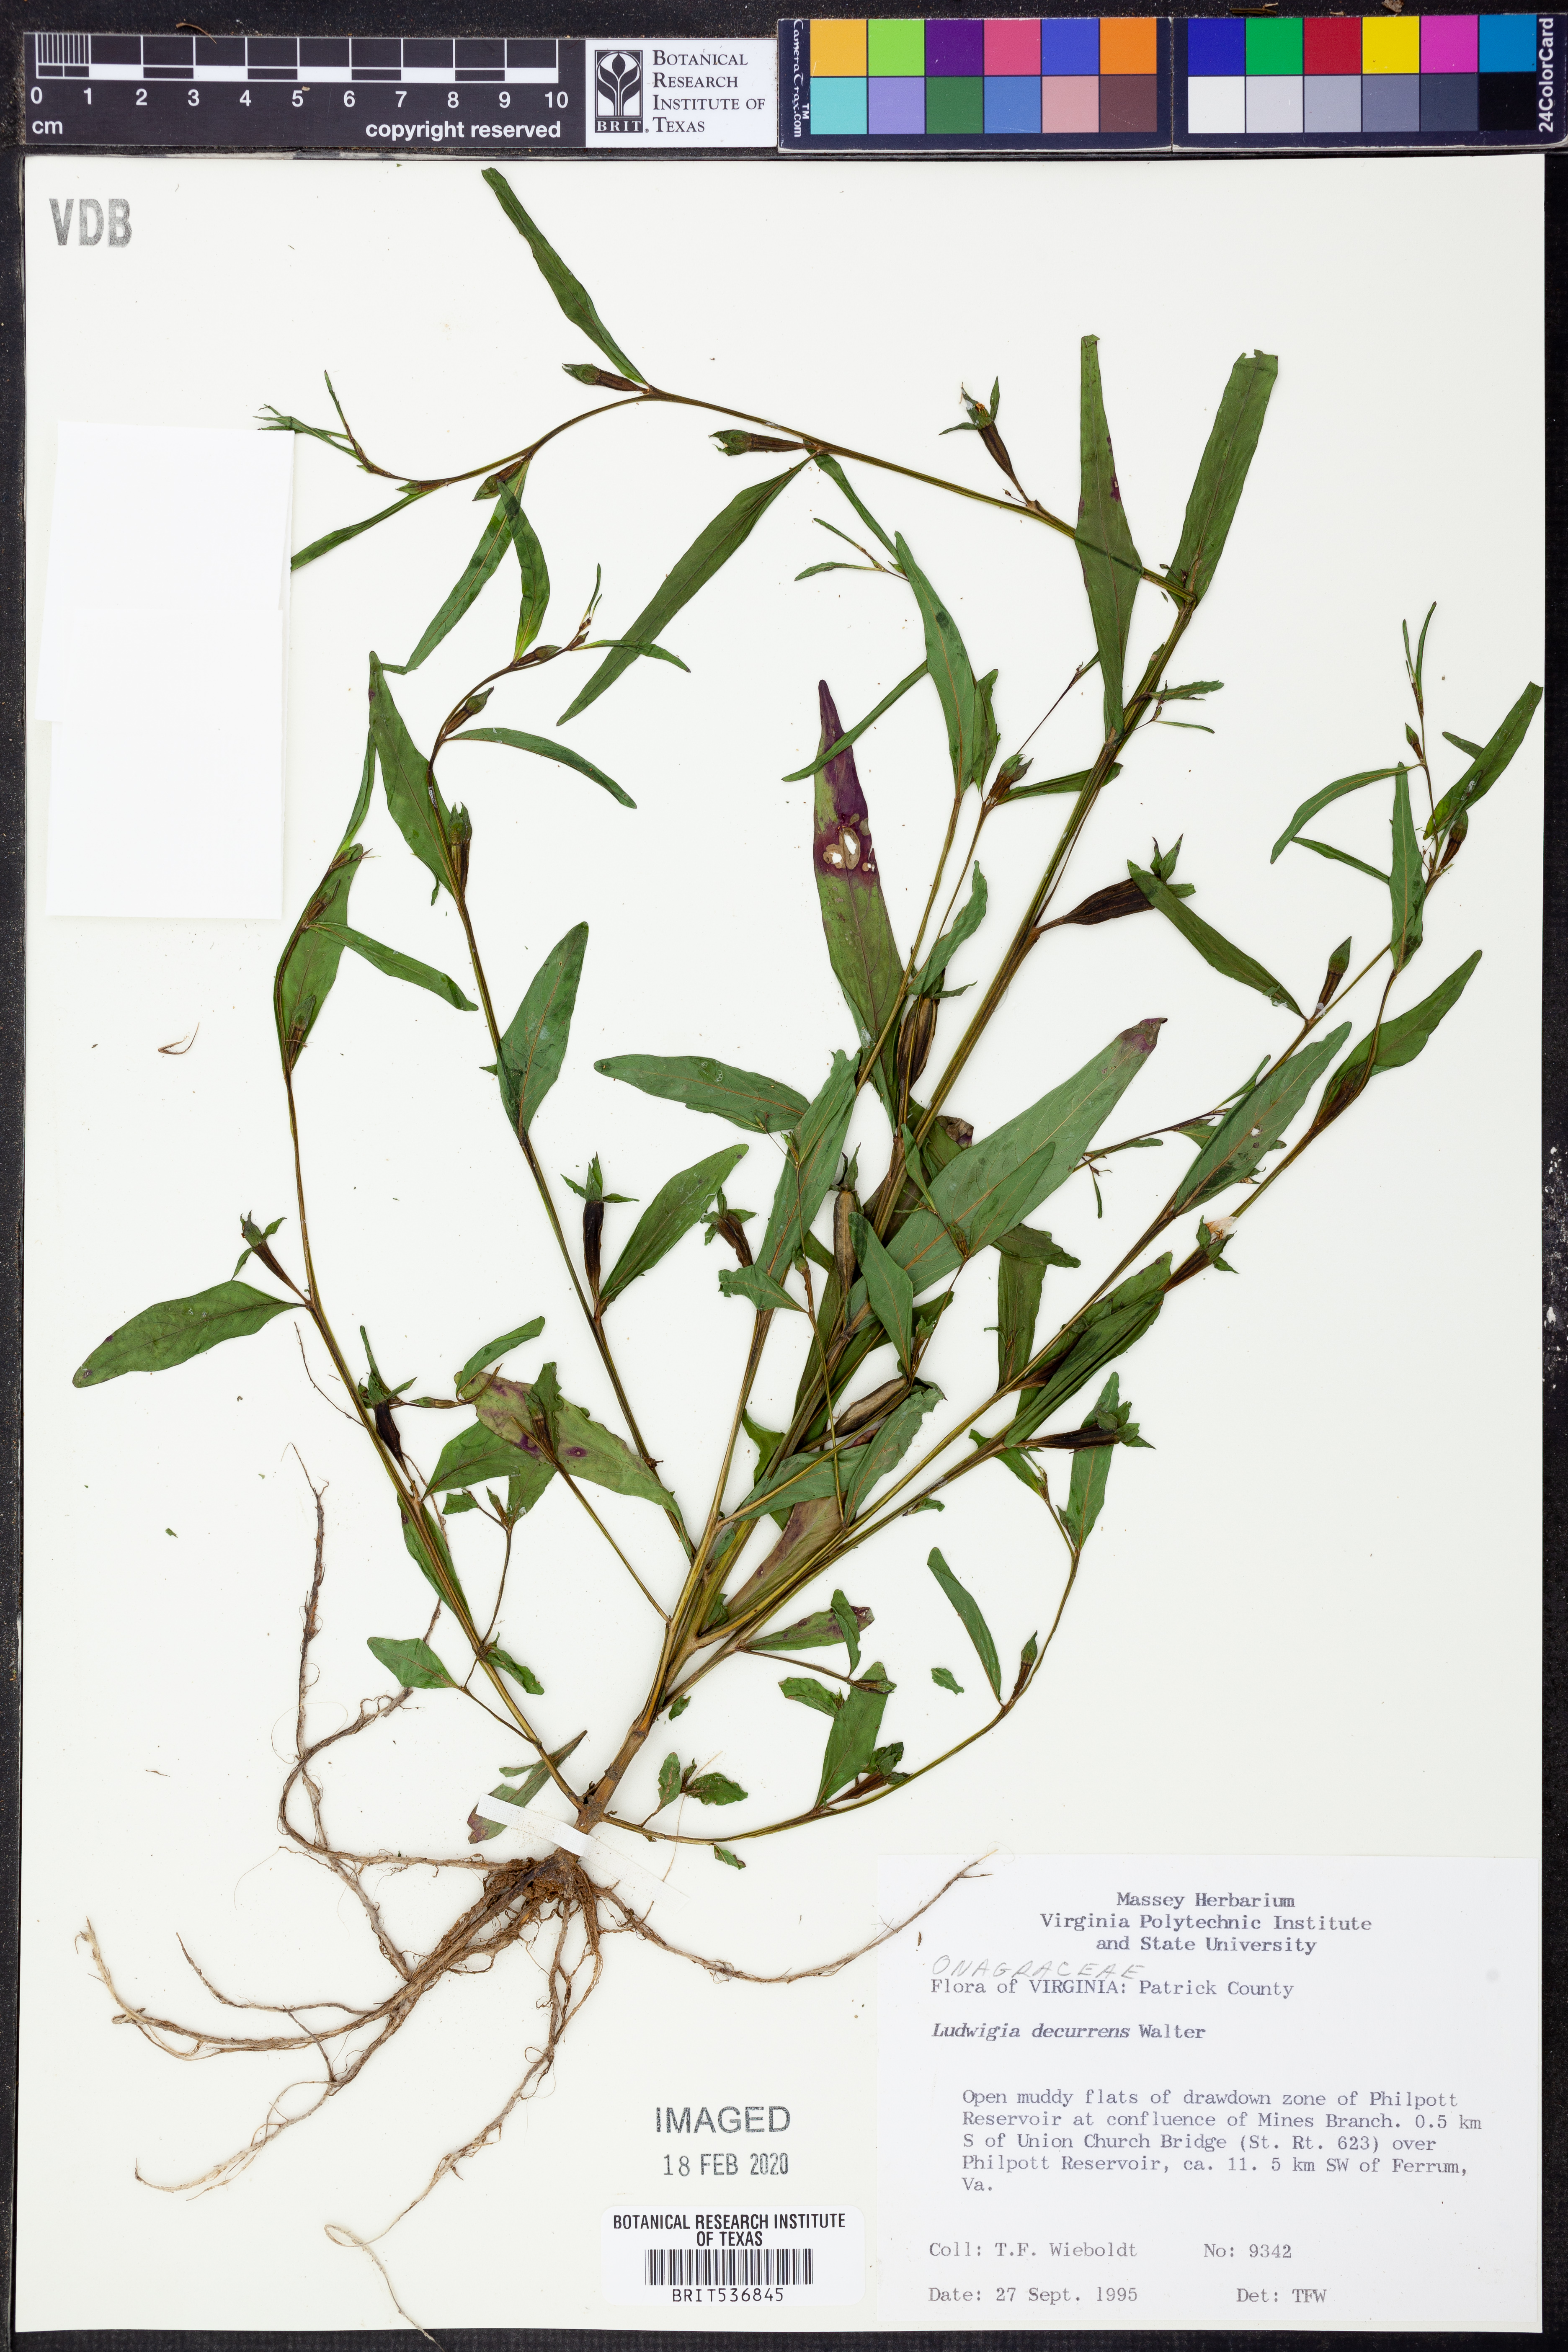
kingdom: Plantae
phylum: Tracheophyta
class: Magnoliopsida
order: Myrtales
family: Onagraceae
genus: Ludwigia
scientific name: Ludwigia decurrens
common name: Winged water-primrose
